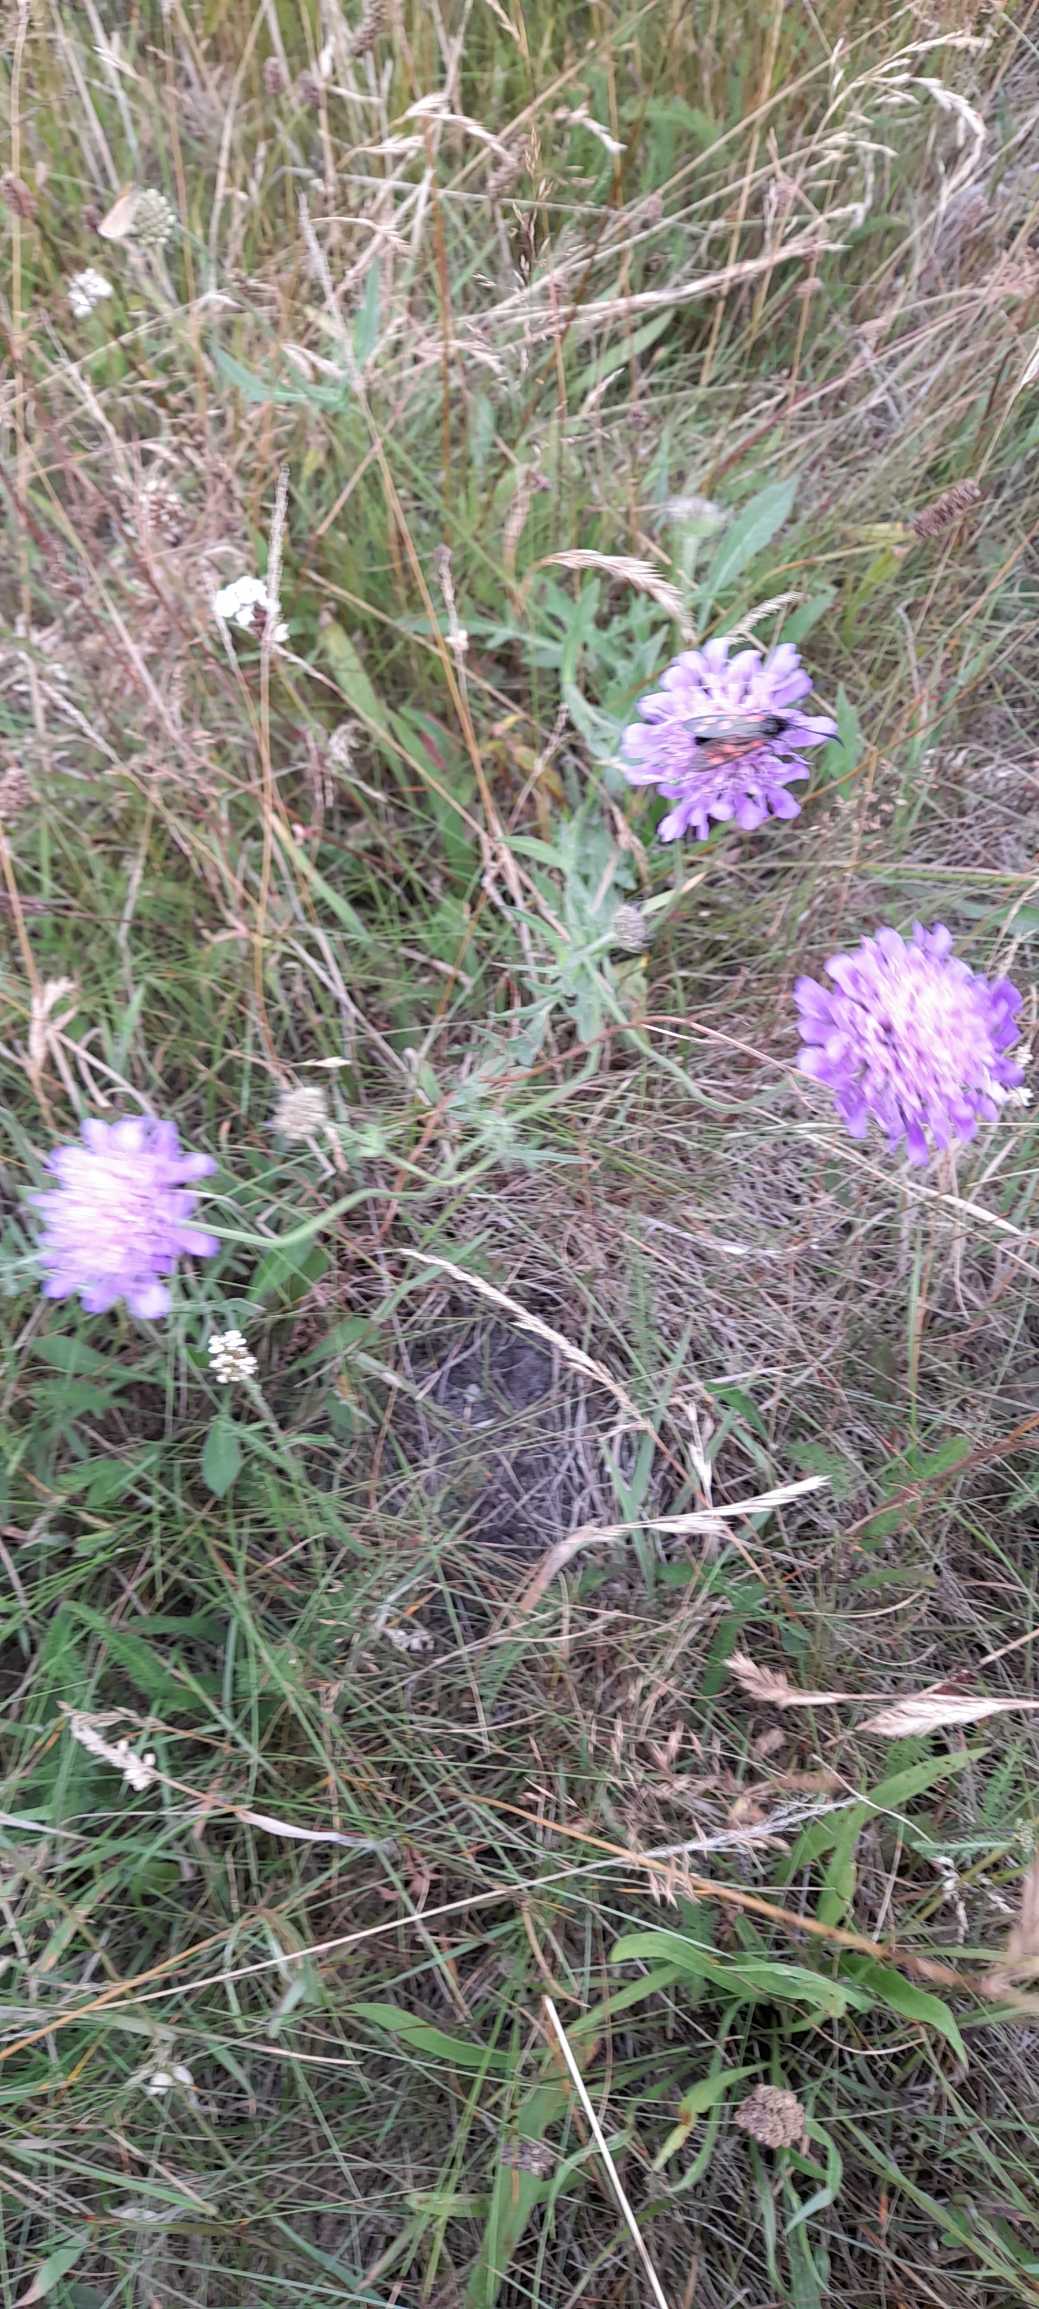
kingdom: Plantae
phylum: Tracheophyta
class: Magnoliopsida
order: Dipsacales
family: Caprifoliaceae
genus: Knautia
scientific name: Knautia arvensis
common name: Blåhat
